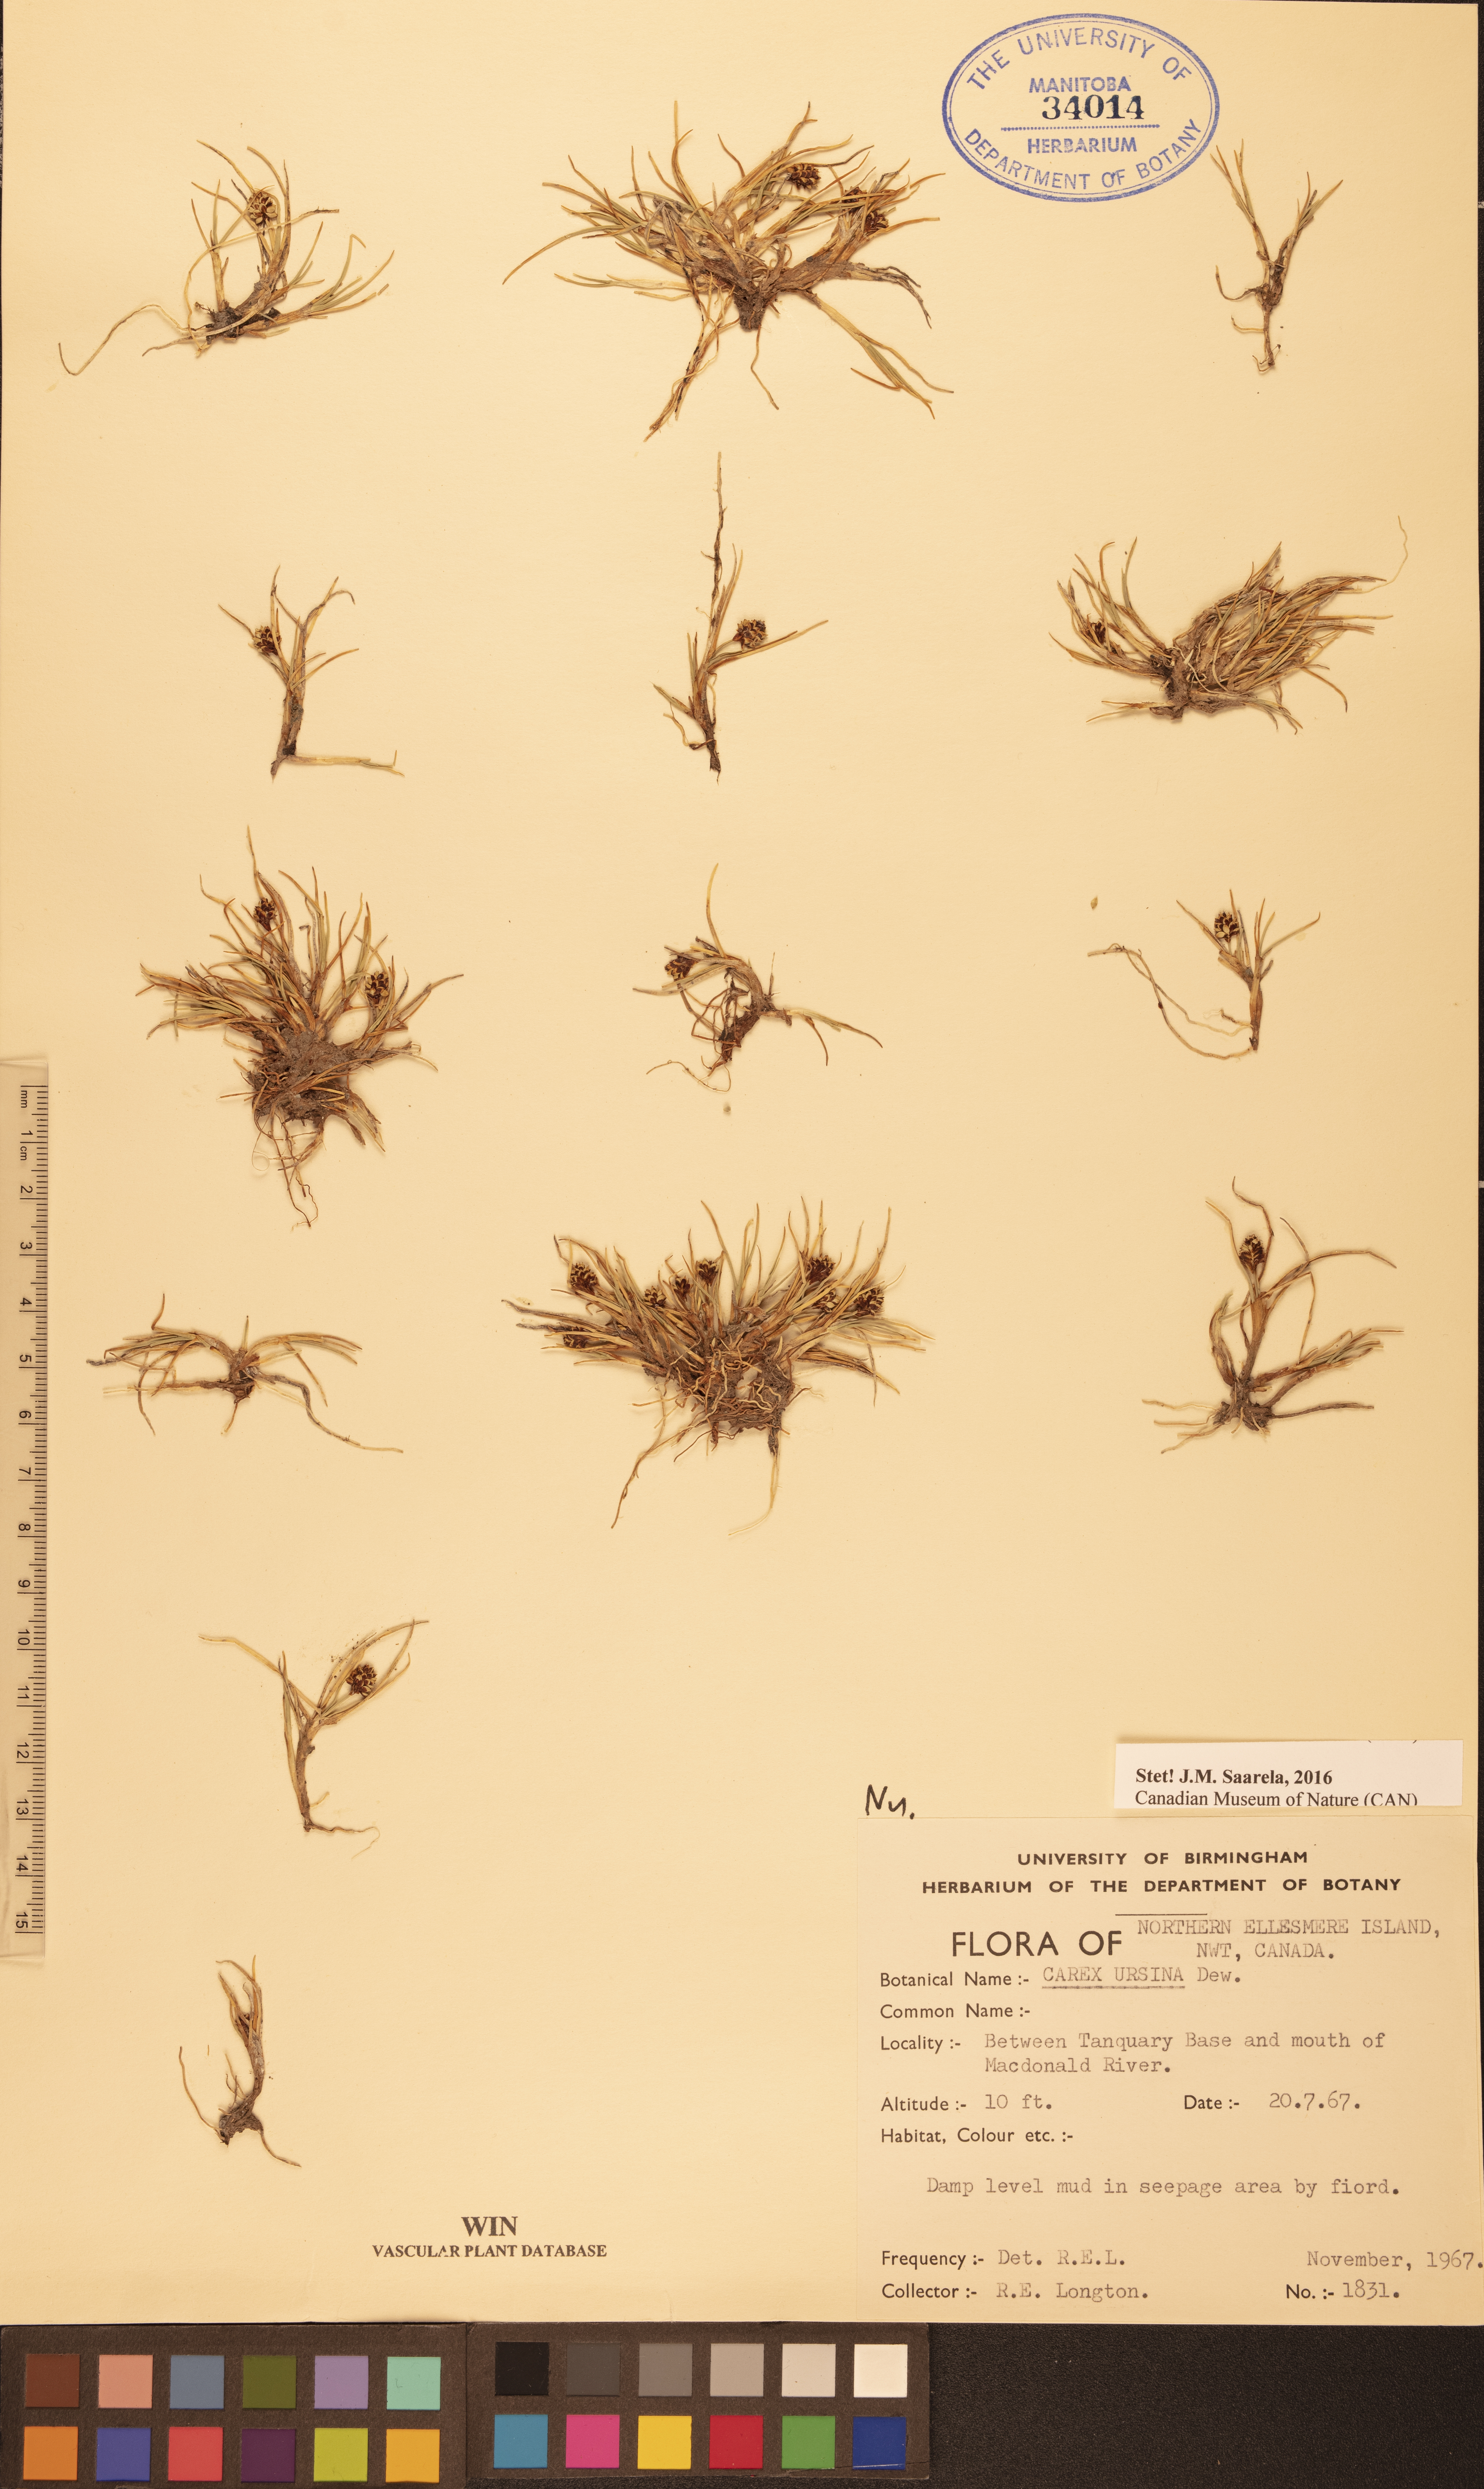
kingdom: Plantae
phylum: Tracheophyta
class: Liliopsida
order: Poales
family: Cyperaceae
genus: Carex
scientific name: Carex ursina
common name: Bear sedge
